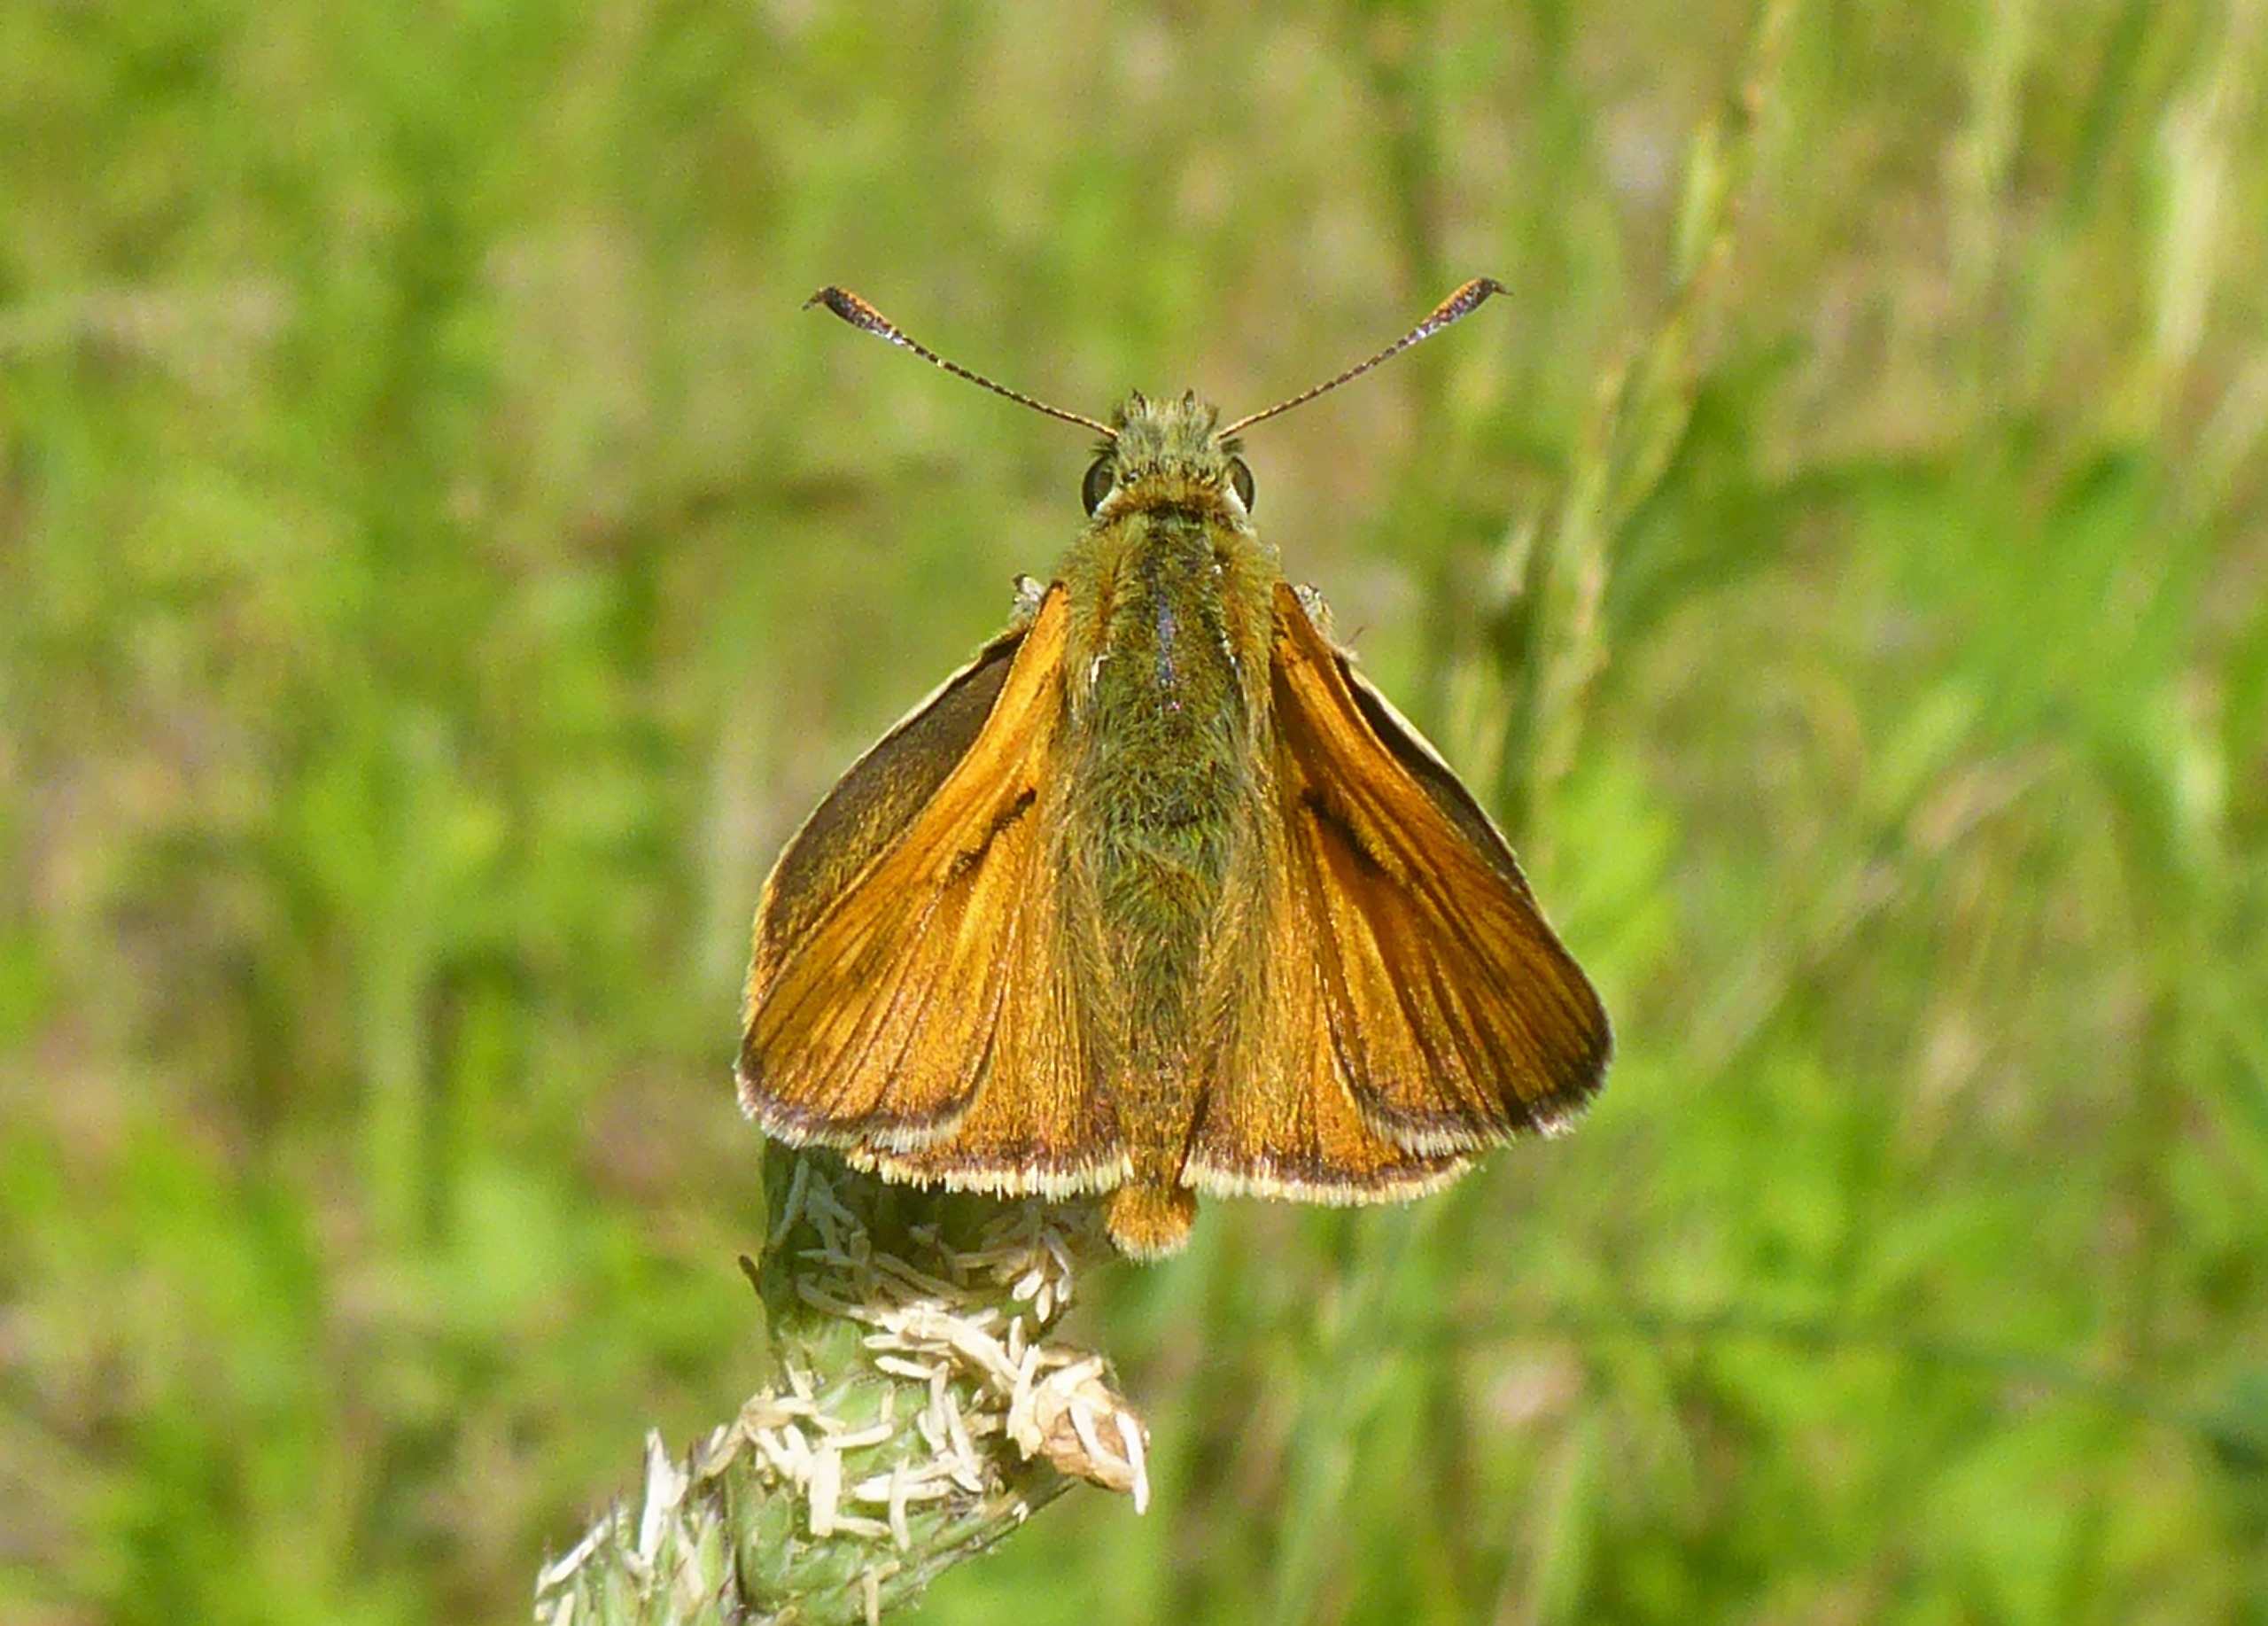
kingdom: Animalia
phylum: Arthropoda
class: Insecta
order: Lepidoptera
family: Hesperiidae
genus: Ochlodes
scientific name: Ochlodes venata
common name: Stor bredpande
